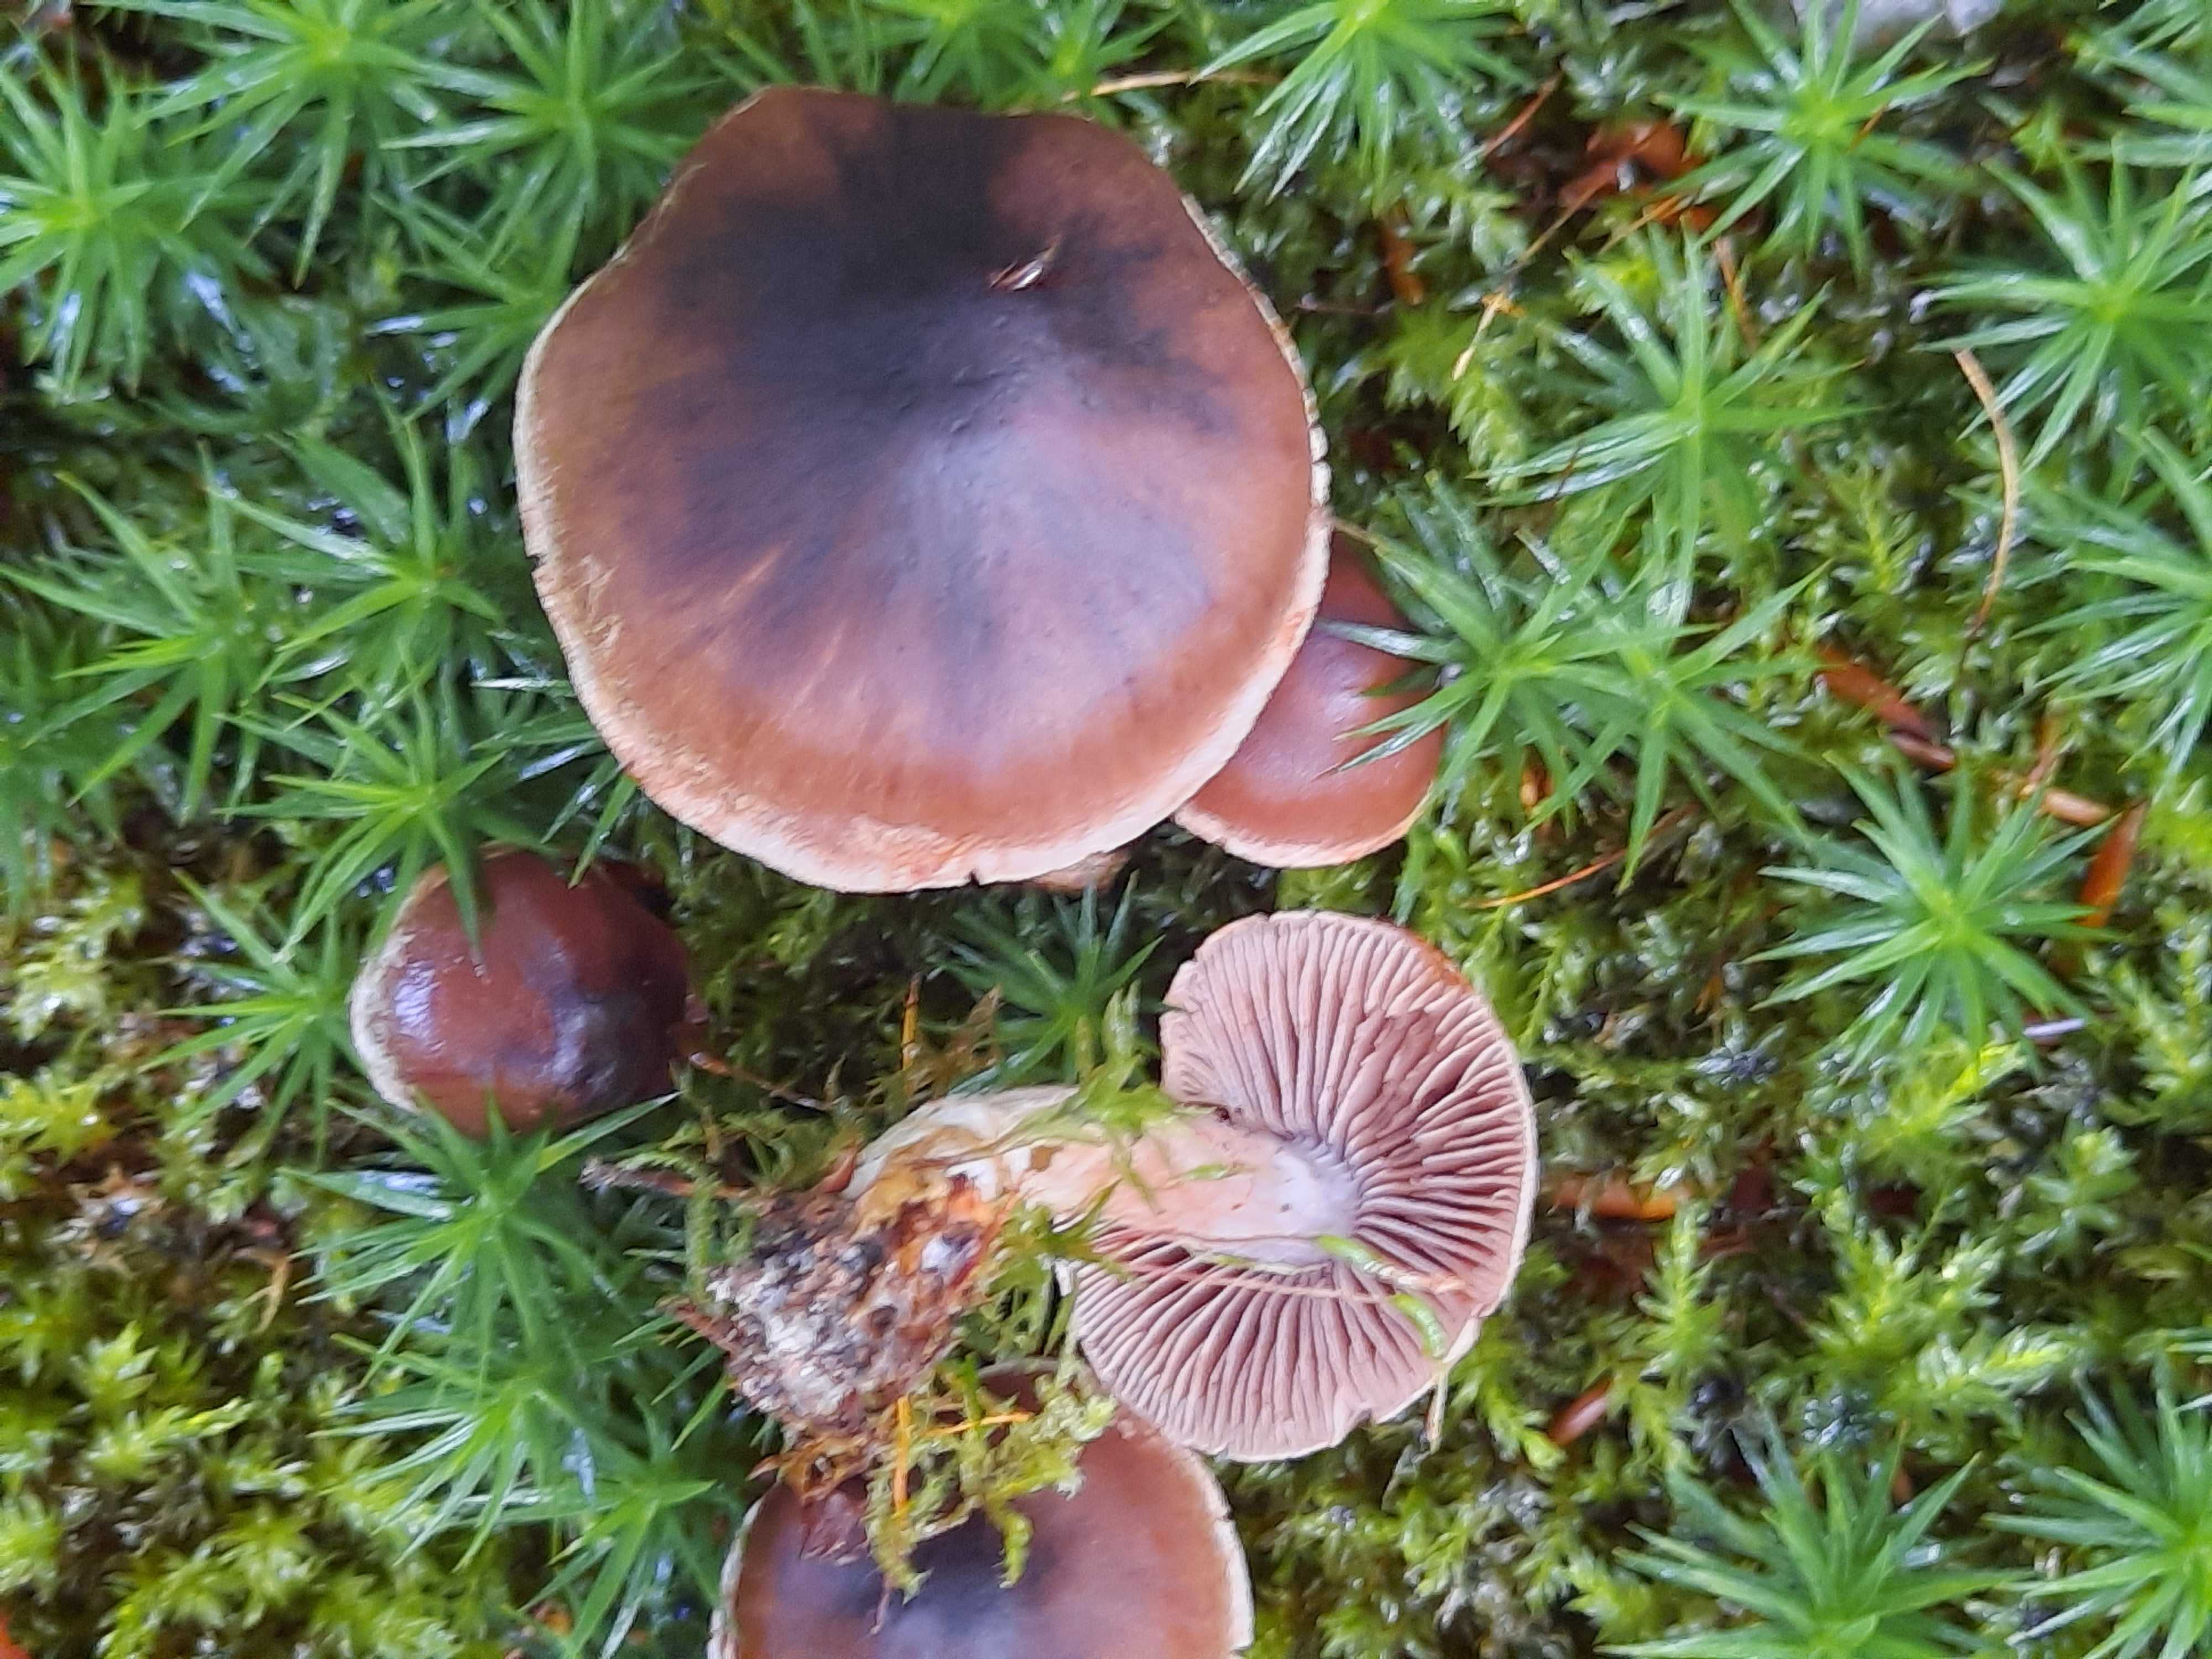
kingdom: Fungi
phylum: Basidiomycota
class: Agaricomycetes
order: Agaricales
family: Cortinariaceae
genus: Cortinarius
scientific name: Cortinarius
